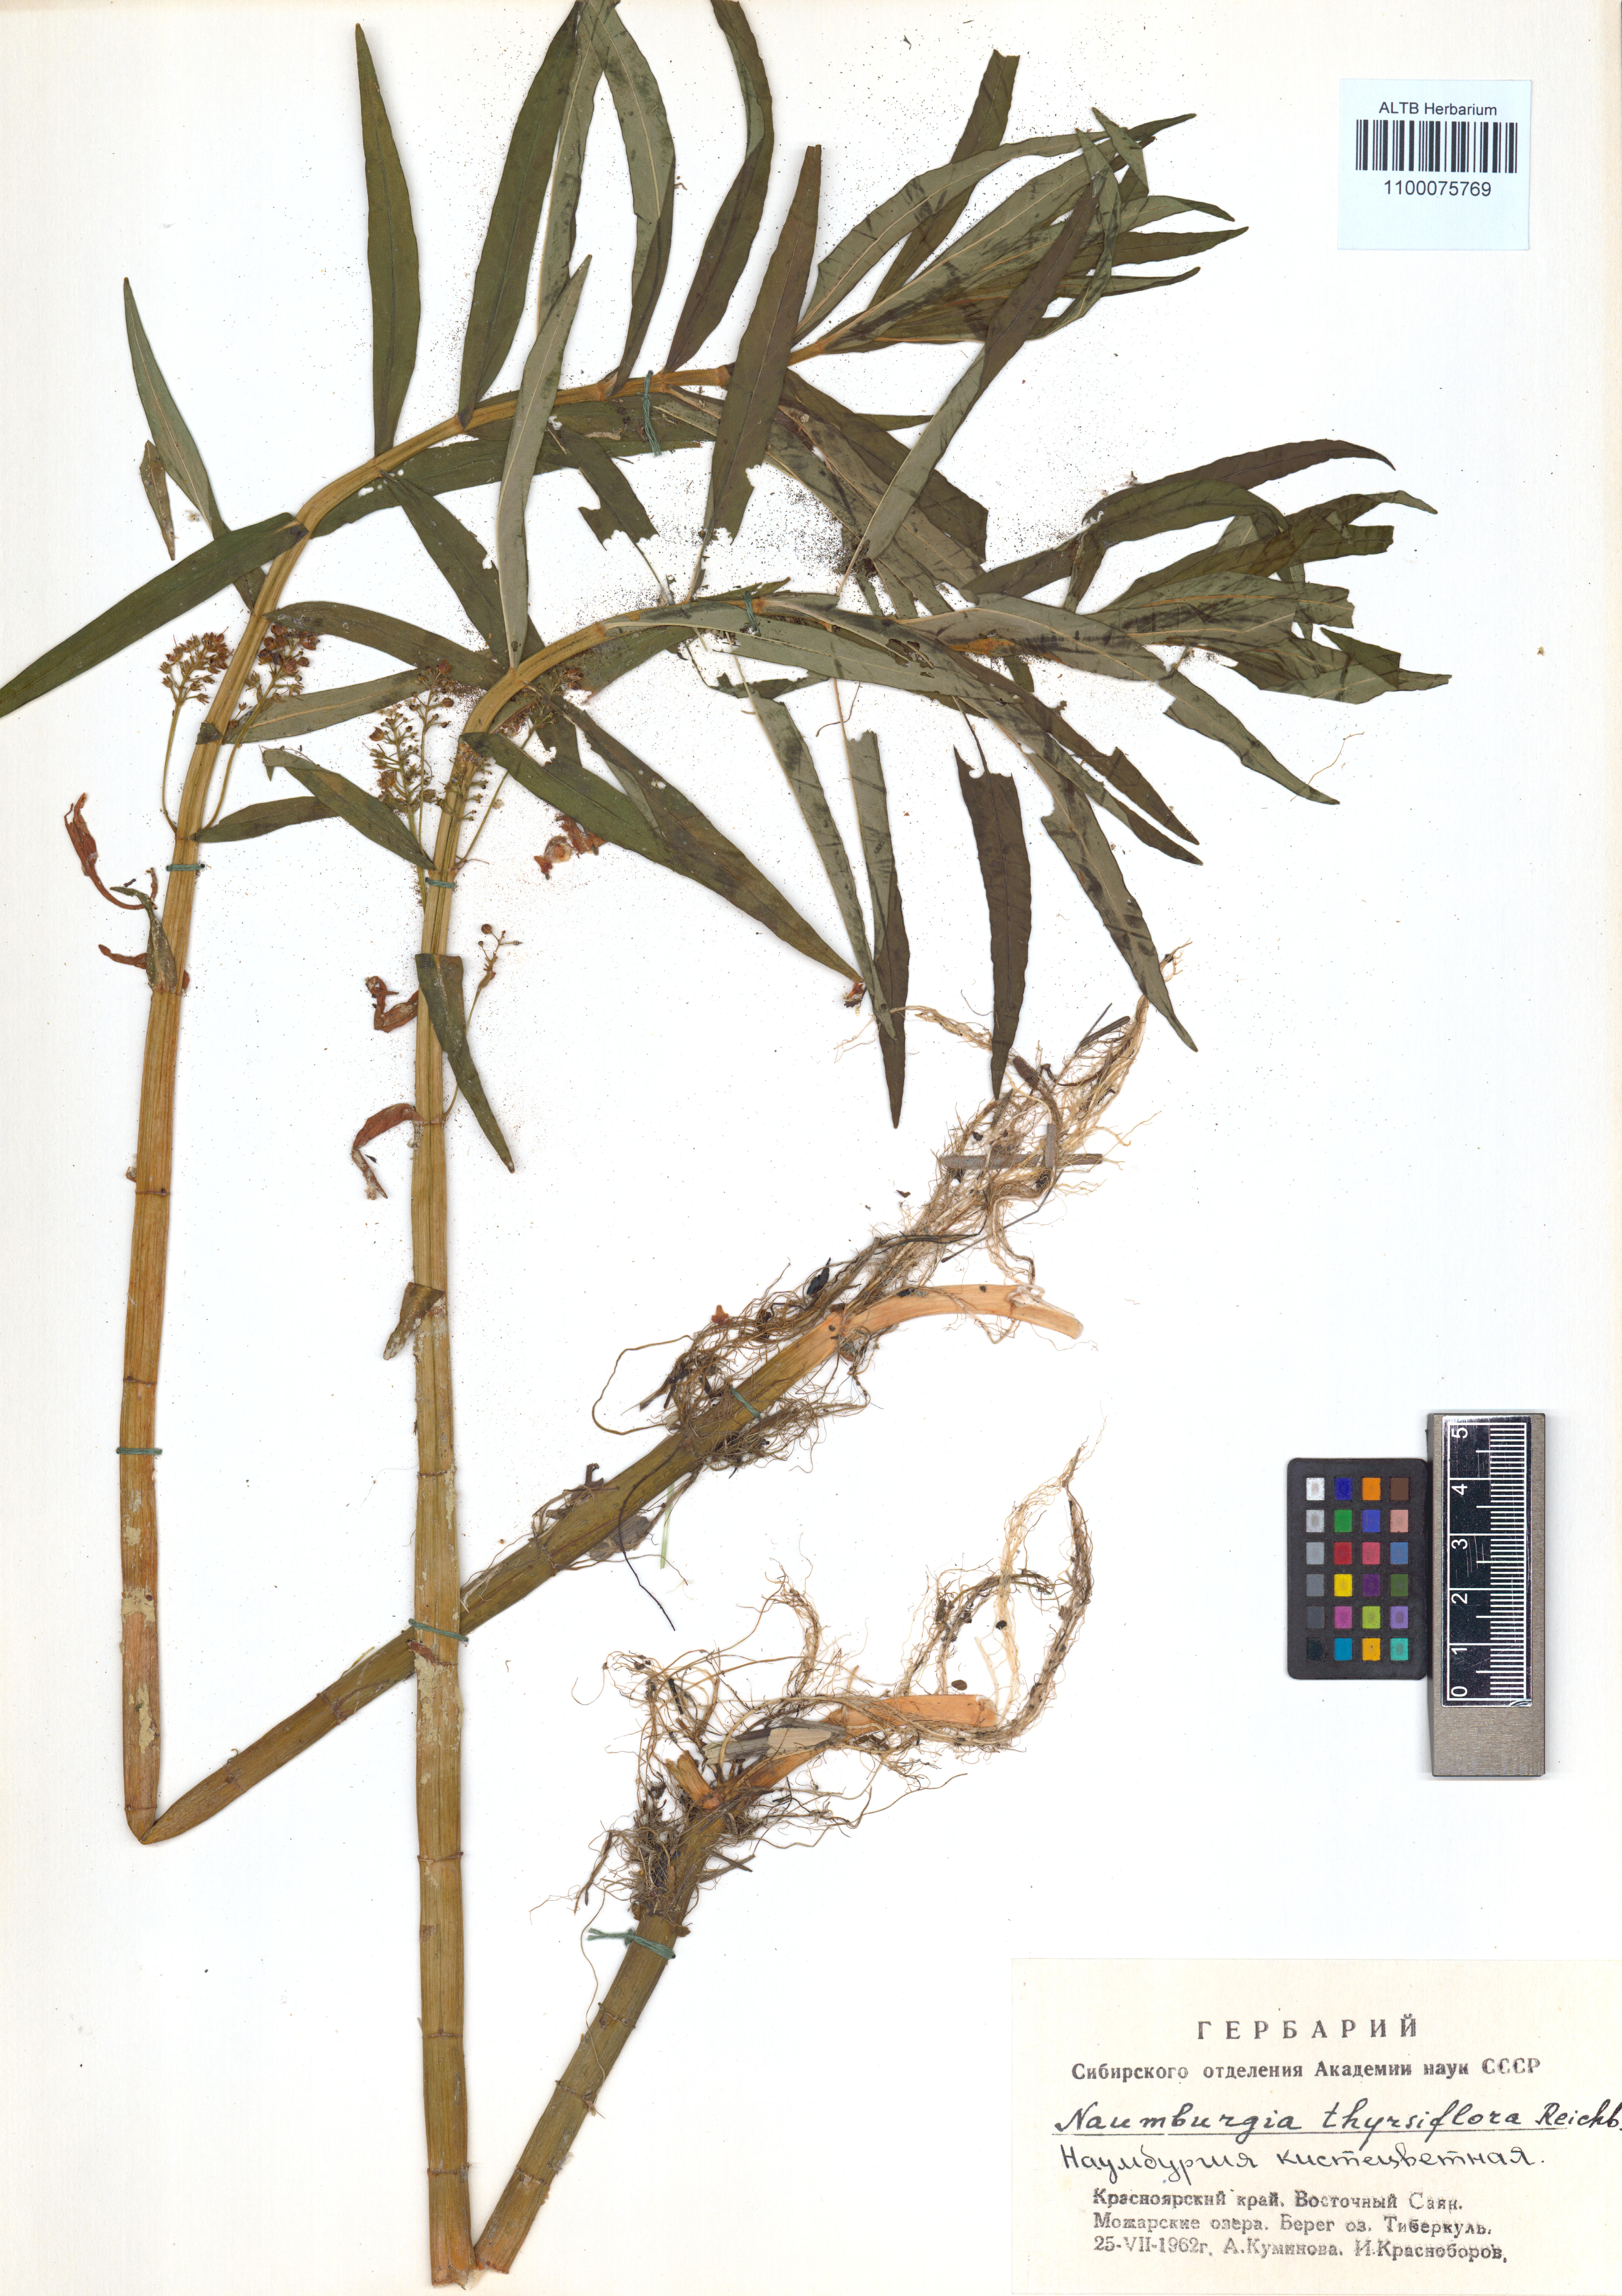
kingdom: Plantae
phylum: Tracheophyta
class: Magnoliopsida
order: Ericales
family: Primulaceae
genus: Lysimachia
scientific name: Lysimachia thyrsiflora
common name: Tufted loosestrife
